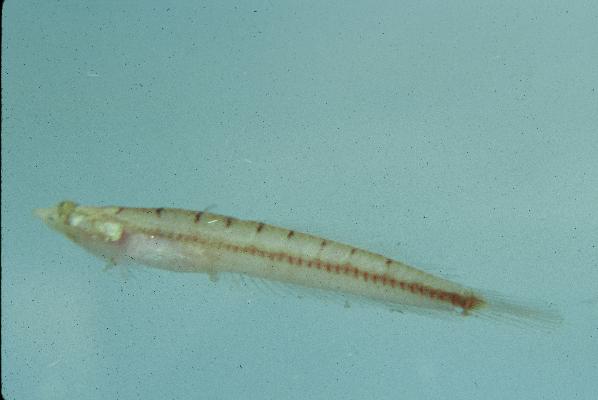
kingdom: Animalia
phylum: Chordata
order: Perciformes
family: Creediidae
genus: Limnichthys
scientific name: Limnichthys nitidus
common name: Donaldson's sandburrower
